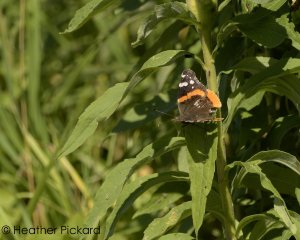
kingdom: Animalia
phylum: Arthropoda
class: Insecta
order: Lepidoptera
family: Nymphalidae
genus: Vanessa
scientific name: Vanessa atalanta
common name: Red Admiral
